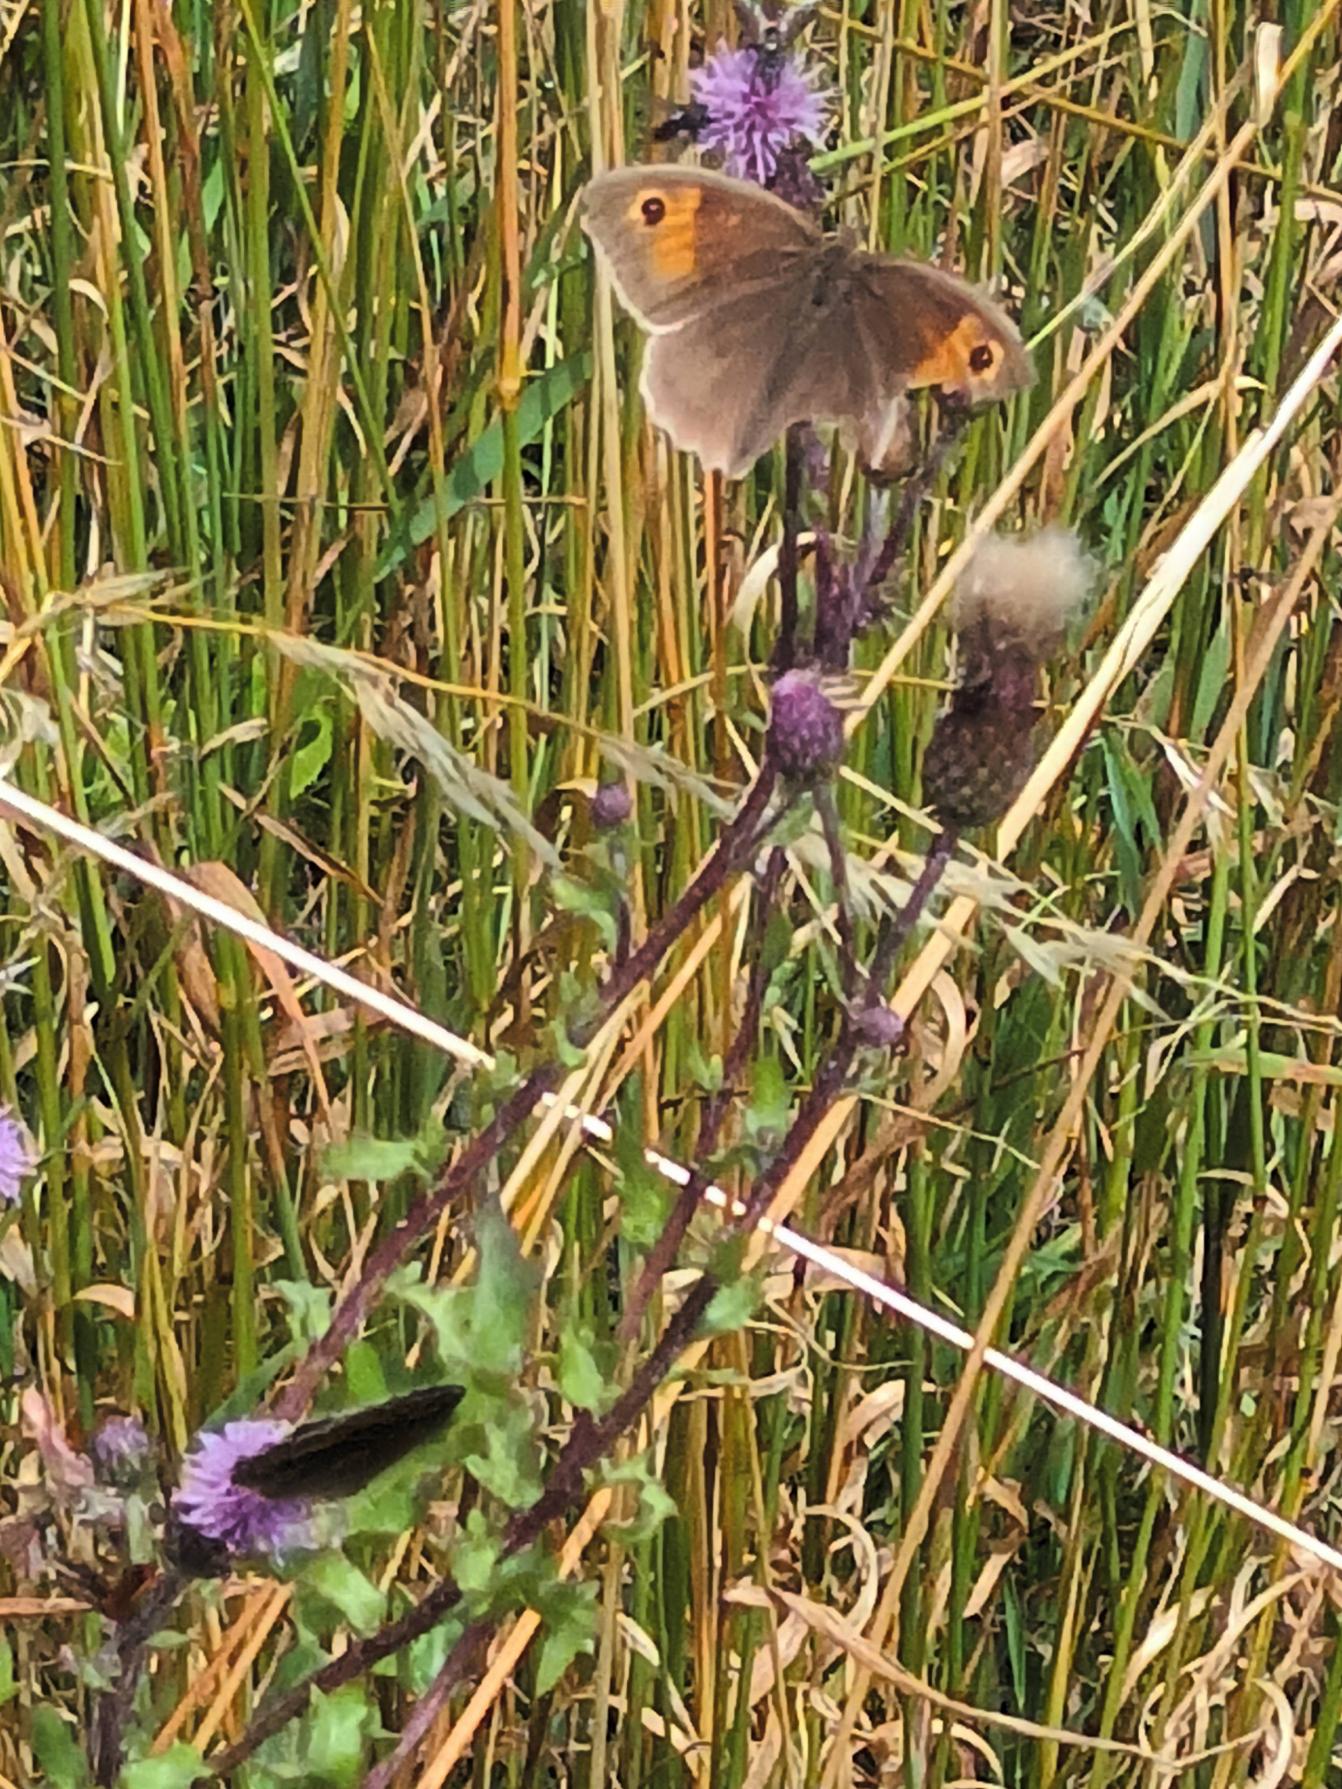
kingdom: Animalia
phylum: Arthropoda
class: Insecta
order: Lepidoptera
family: Nymphalidae
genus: Maniola
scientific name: Maniola jurtina
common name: Græsrandøje
